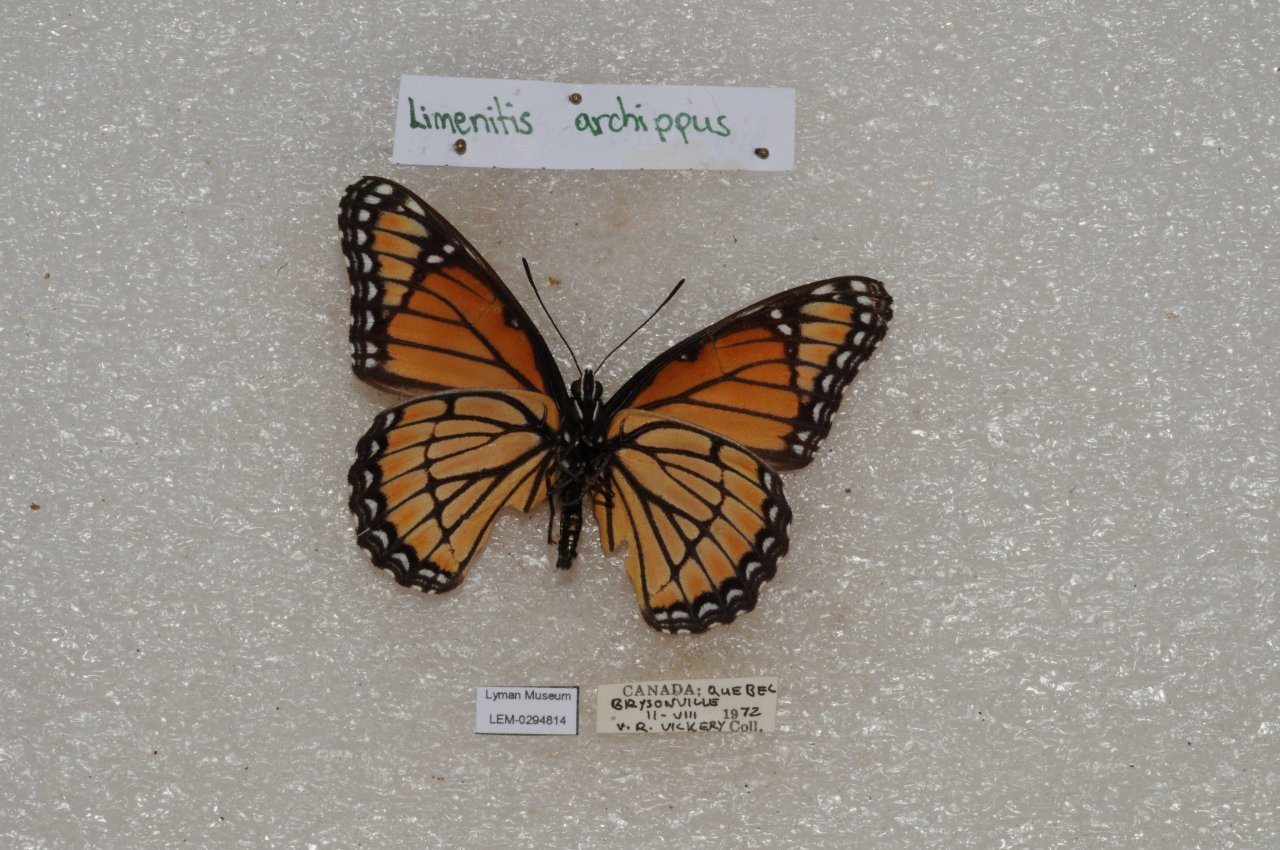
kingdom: Animalia
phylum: Arthropoda
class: Insecta
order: Lepidoptera
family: Nymphalidae
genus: Limenitis
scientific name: Limenitis archippus
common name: Viceroy
